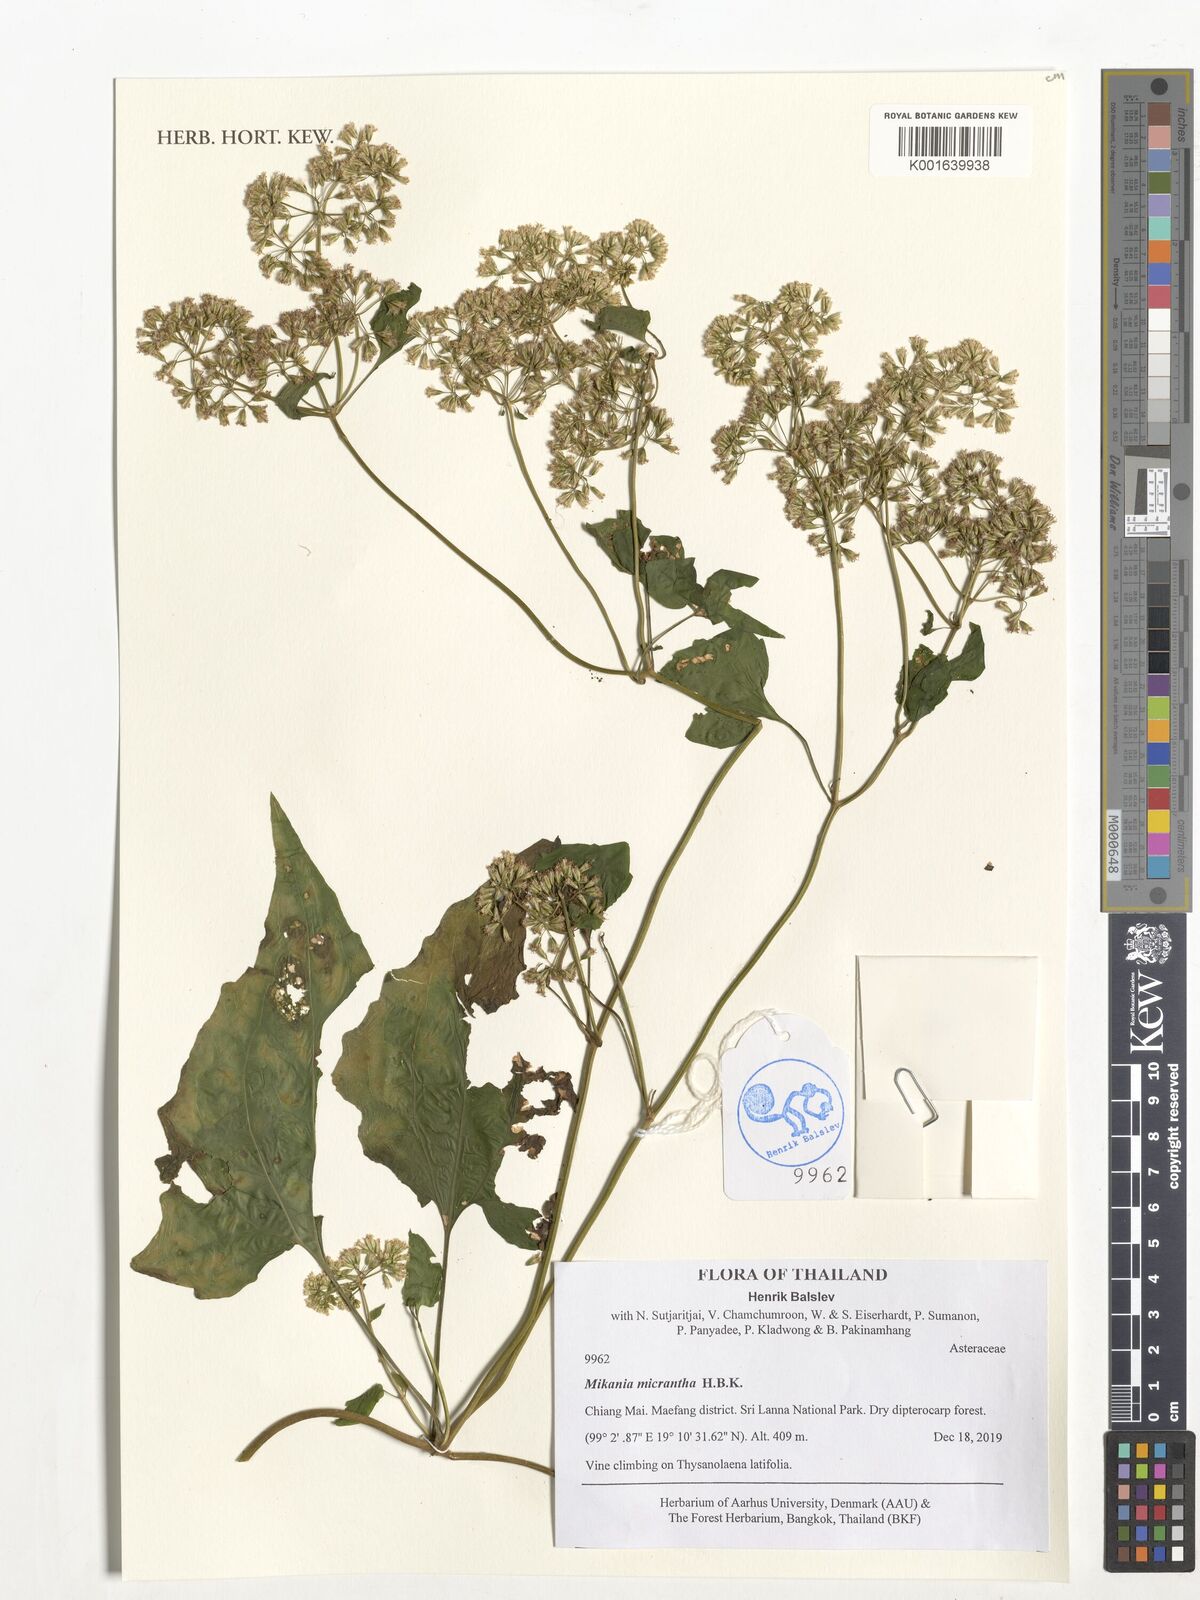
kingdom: Plantae
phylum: Tracheophyta
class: Magnoliopsida
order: Asterales
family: Asteraceae
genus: Mikania
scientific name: Mikania micrantha
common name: Mile-a-minute
